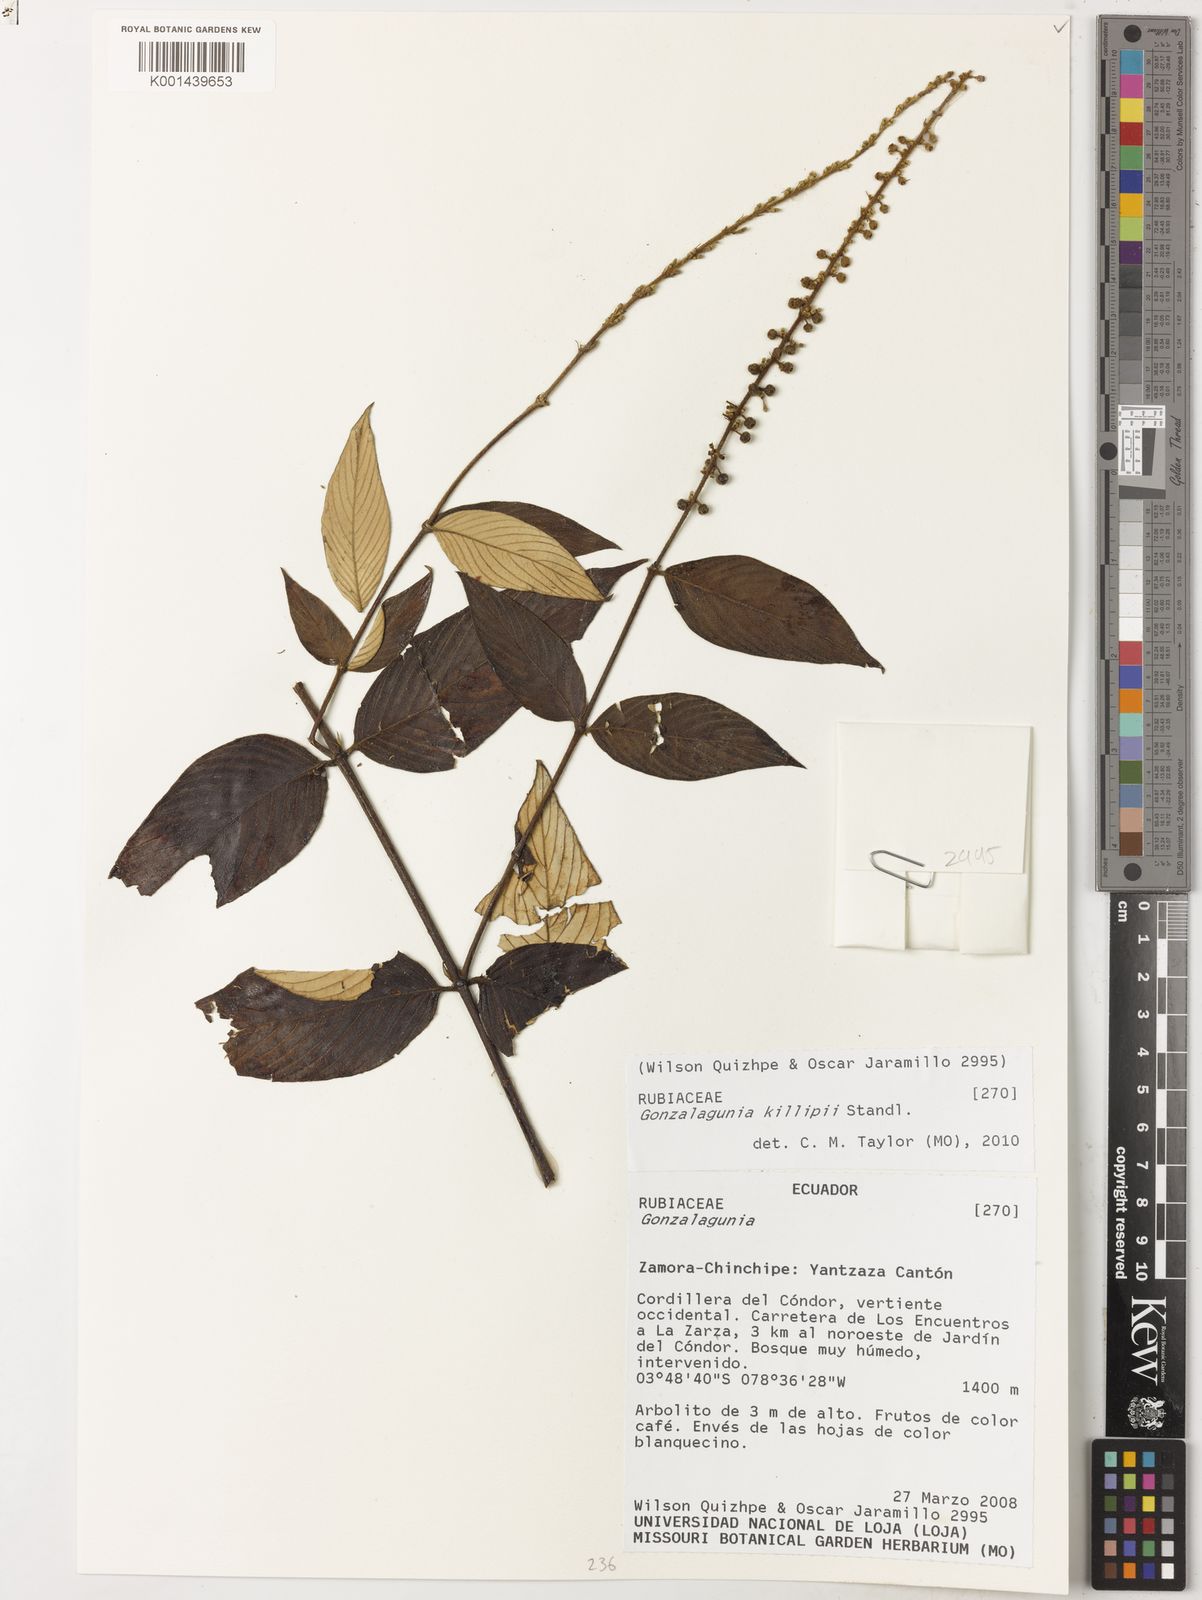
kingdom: Plantae
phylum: Tracheophyta
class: Magnoliopsida
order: Gentianales
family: Rubiaceae
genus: Gonzalagunia
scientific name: Gonzalagunia killipii
